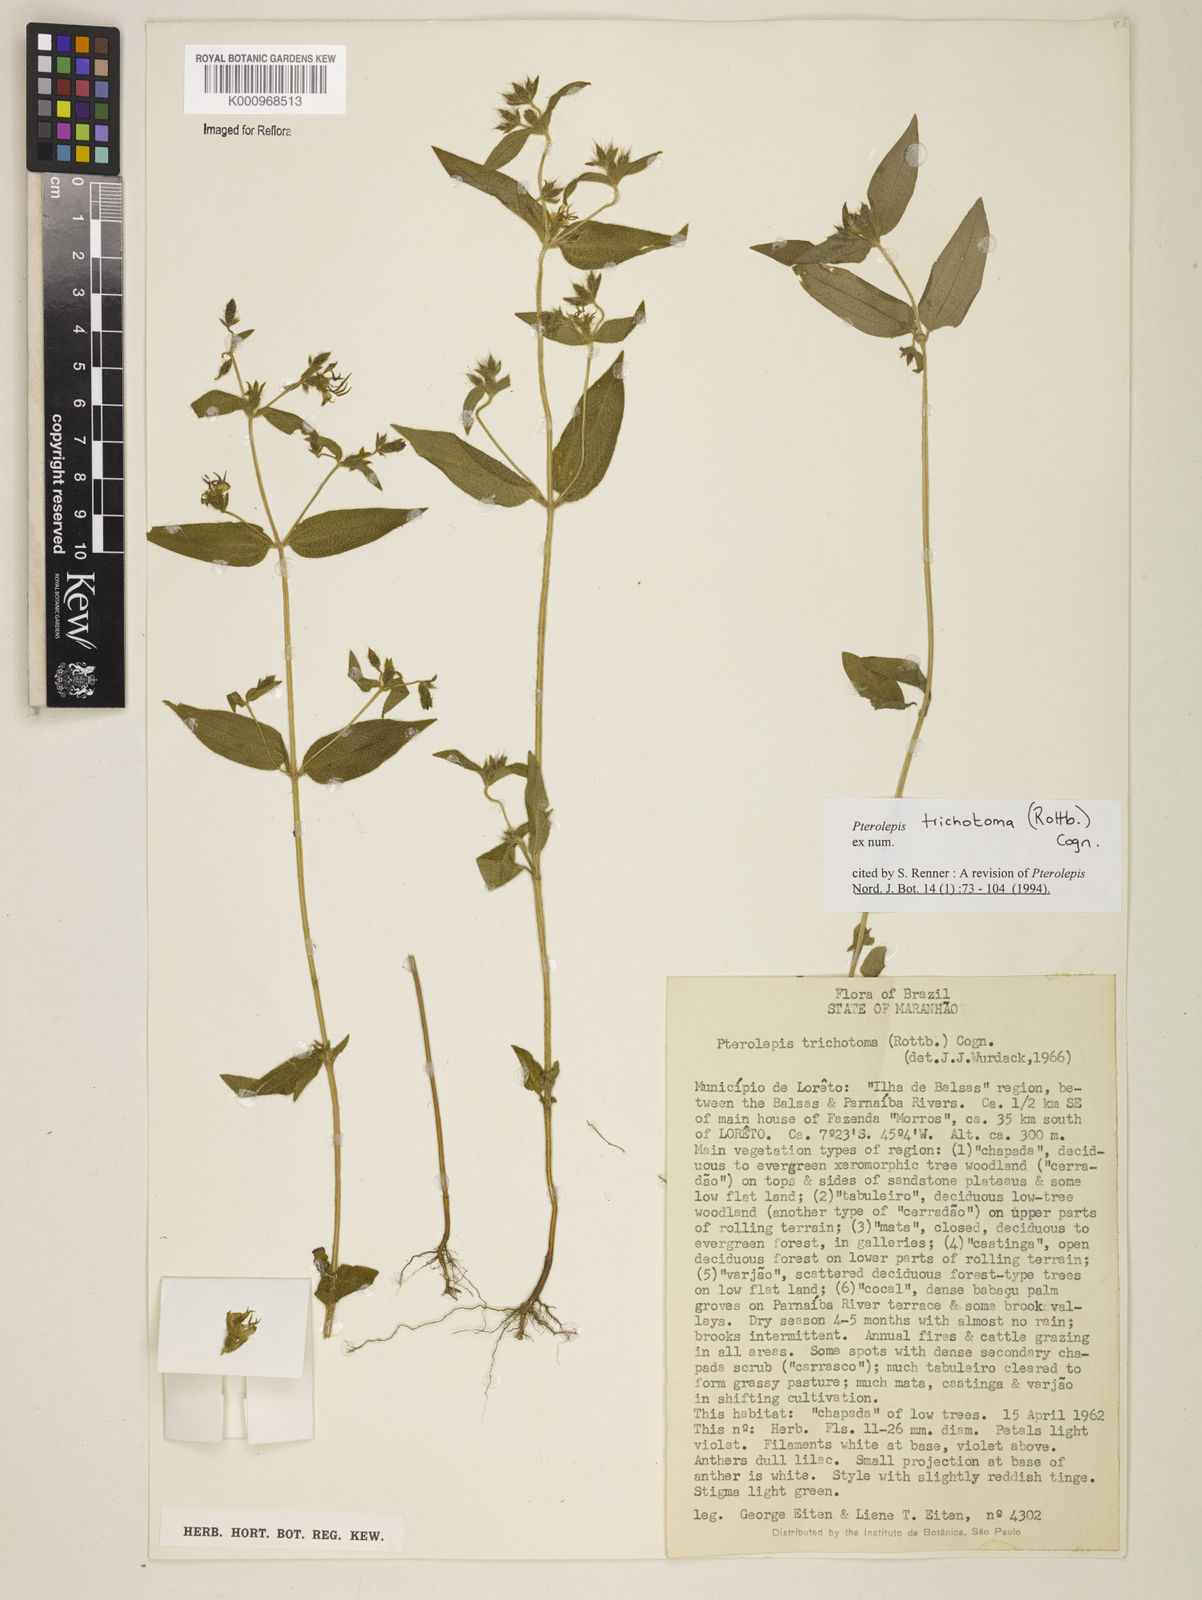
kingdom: Plantae
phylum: Tracheophyta
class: Magnoliopsida
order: Myrtales
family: Melastomataceae
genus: Pterolepis
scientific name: Pterolepis trichotoma
